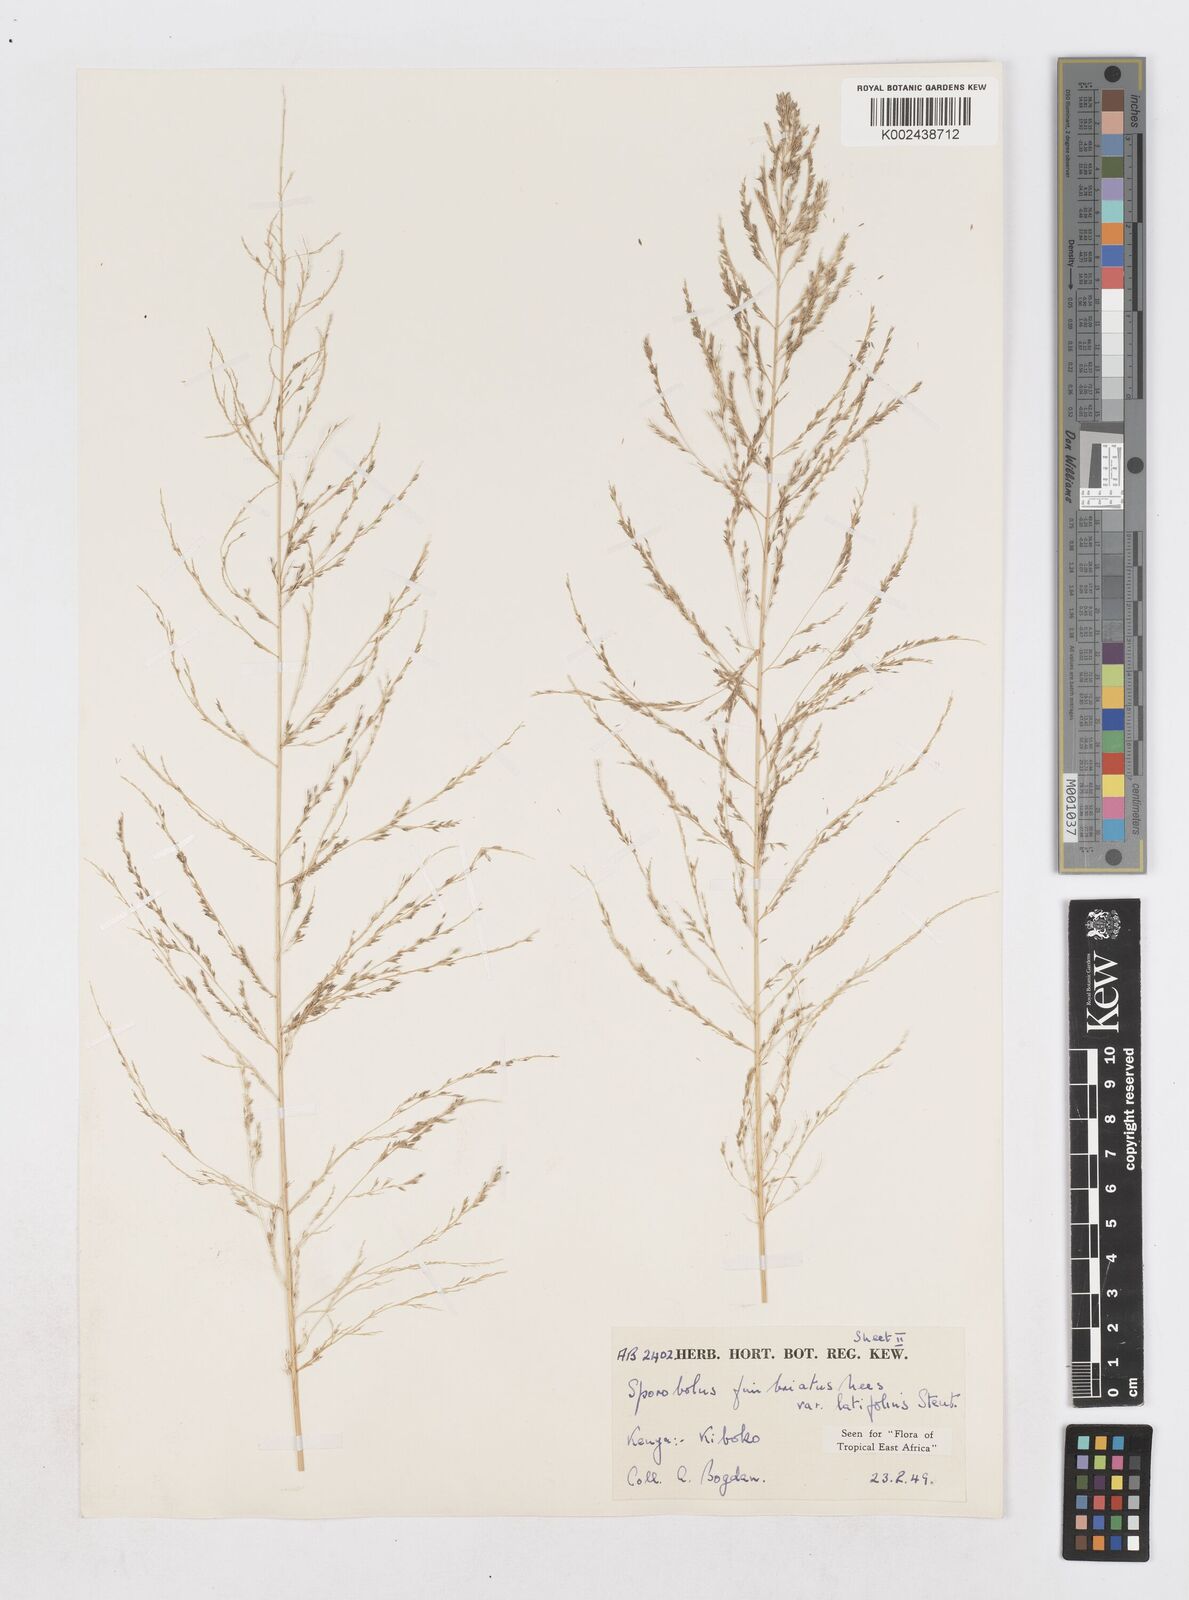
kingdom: Plantae
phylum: Tracheophyta
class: Liliopsida
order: Poales
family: Poaceae
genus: Sporobolus
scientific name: Sporobolus fimbriatus
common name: Fringed dropseed
